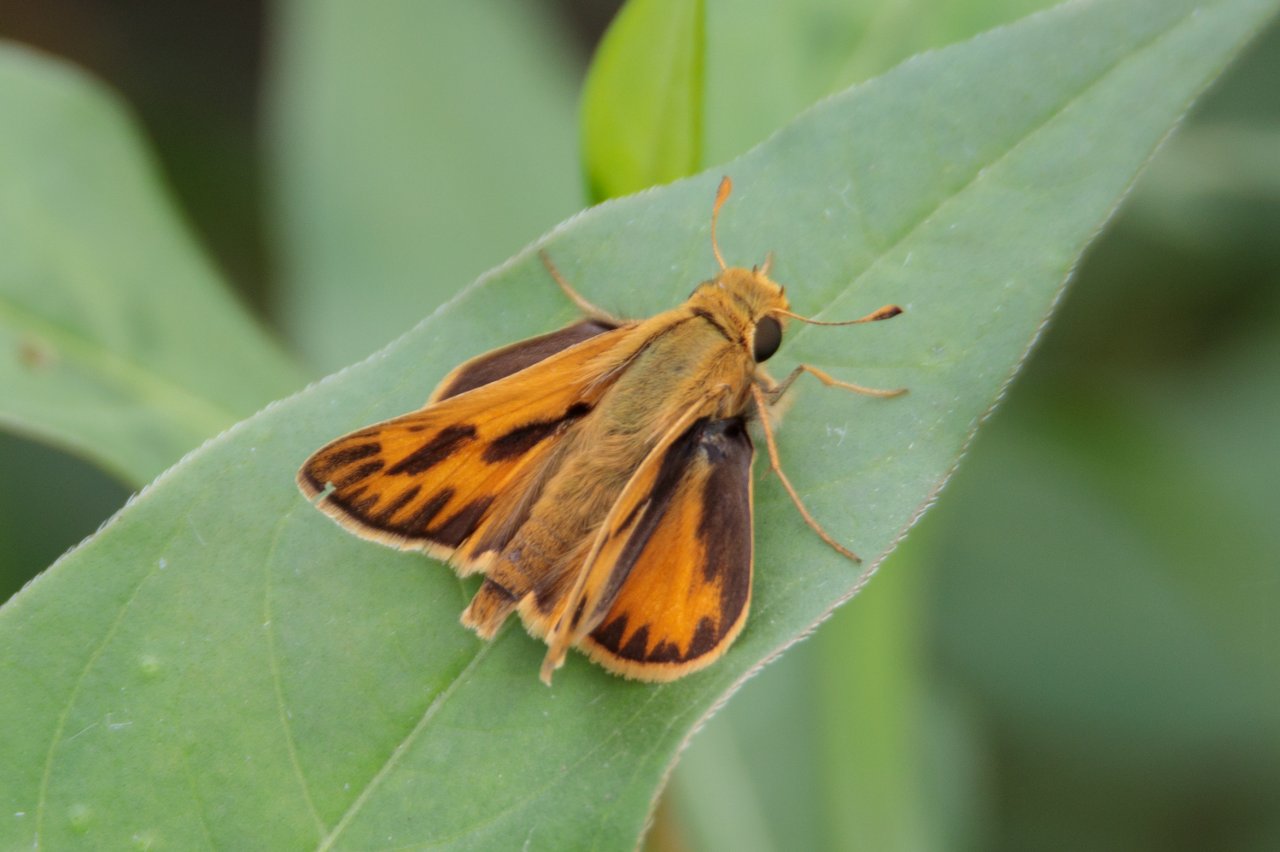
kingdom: Animalia
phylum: Arthropoda
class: Insecta
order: Lepidoptera
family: Hesperiidae
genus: Hylephila
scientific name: Hylephila phyleus
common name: Fiery Skipper
